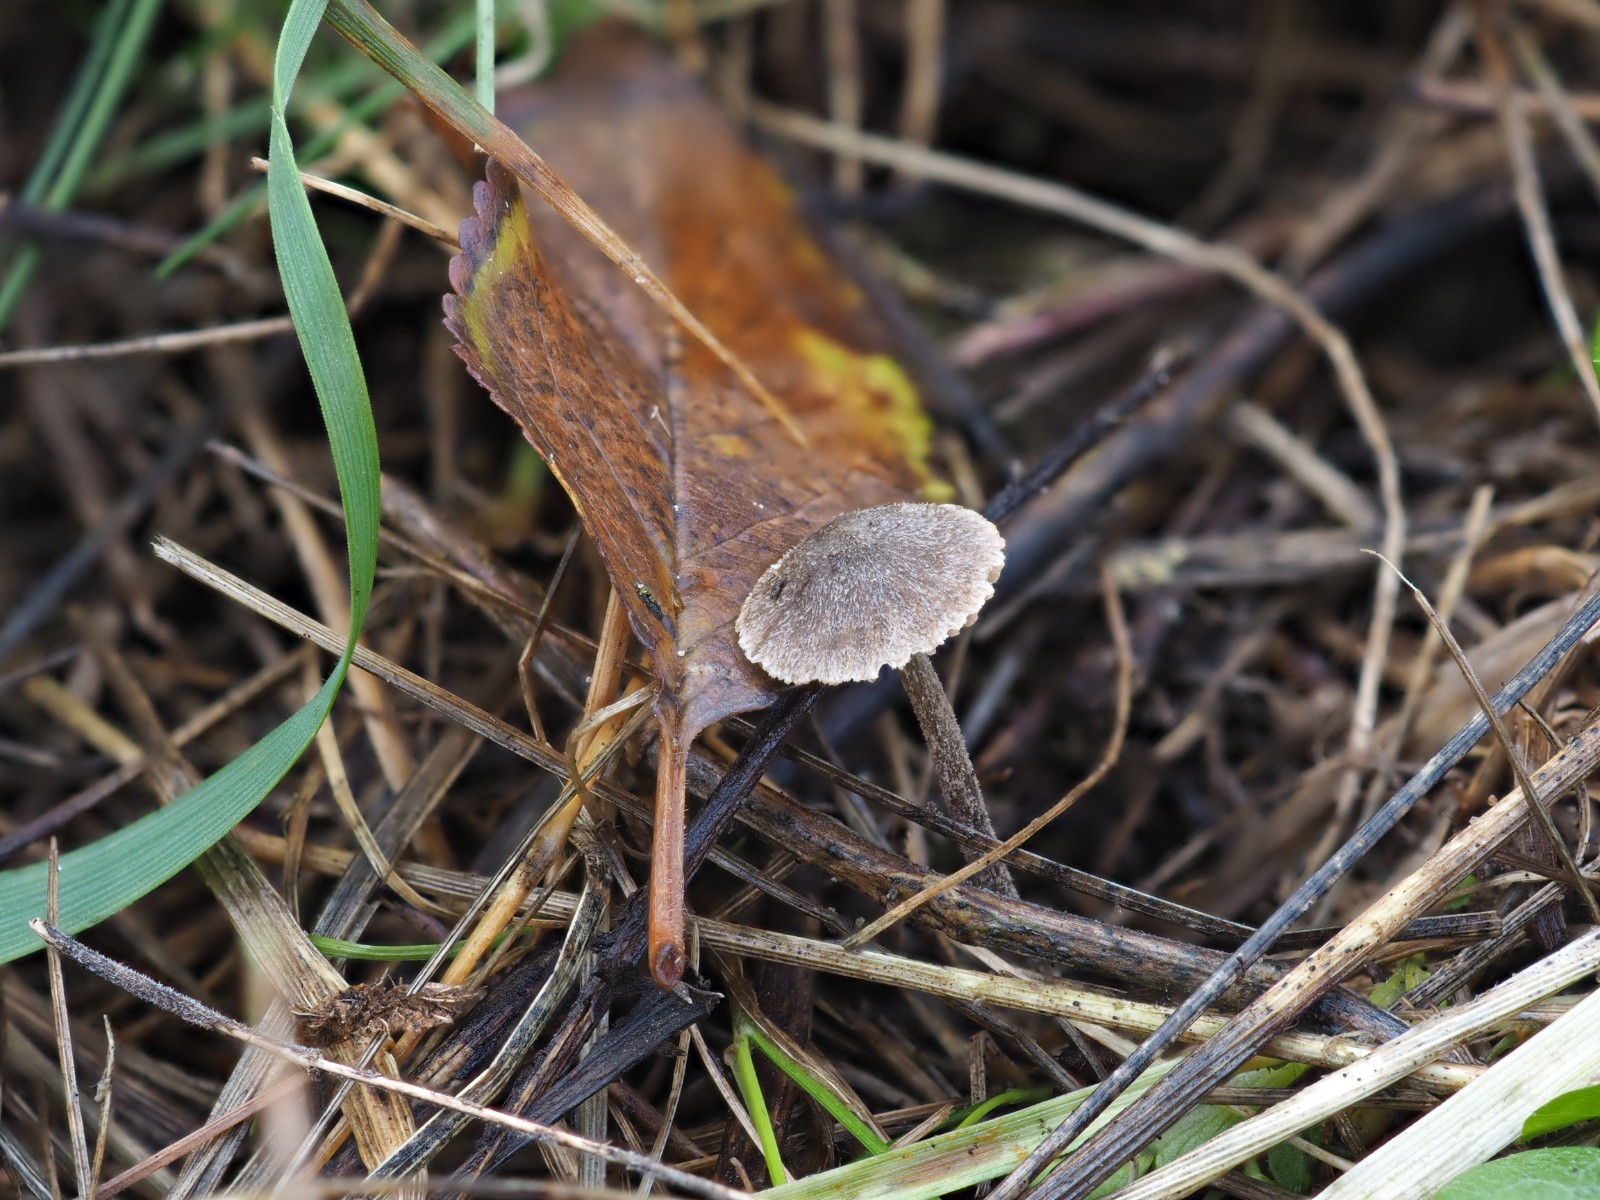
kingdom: Fungi
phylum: Basidiomycota
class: Agaricomycetes
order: Agaricales
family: Entolomataceae
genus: Entoloma
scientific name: Entoloma dysthaloides
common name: dyster rødblad
